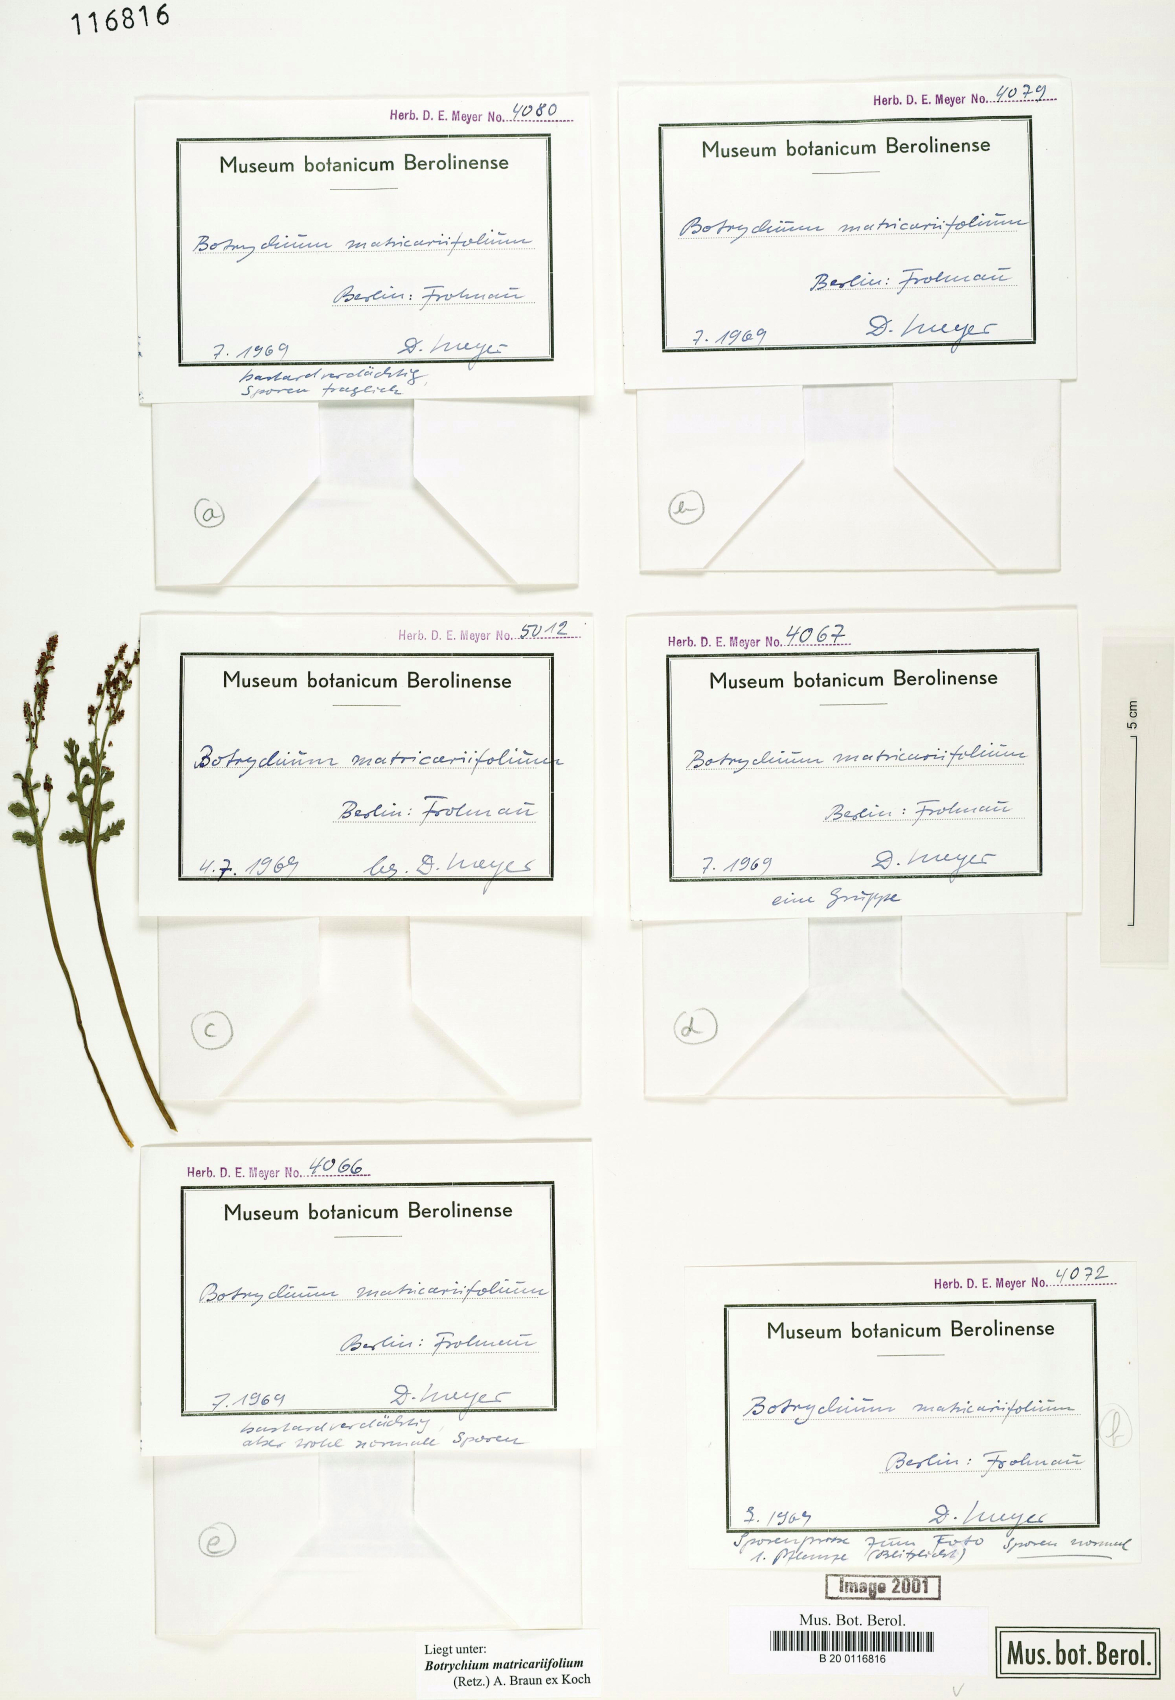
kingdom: Plantae
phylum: Tracheophyta
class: Polypodiopsida
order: Ophioglossales
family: Ophioglossaceae
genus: Botrychium
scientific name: Botrychium matricariifolium
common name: Branched moonwort
